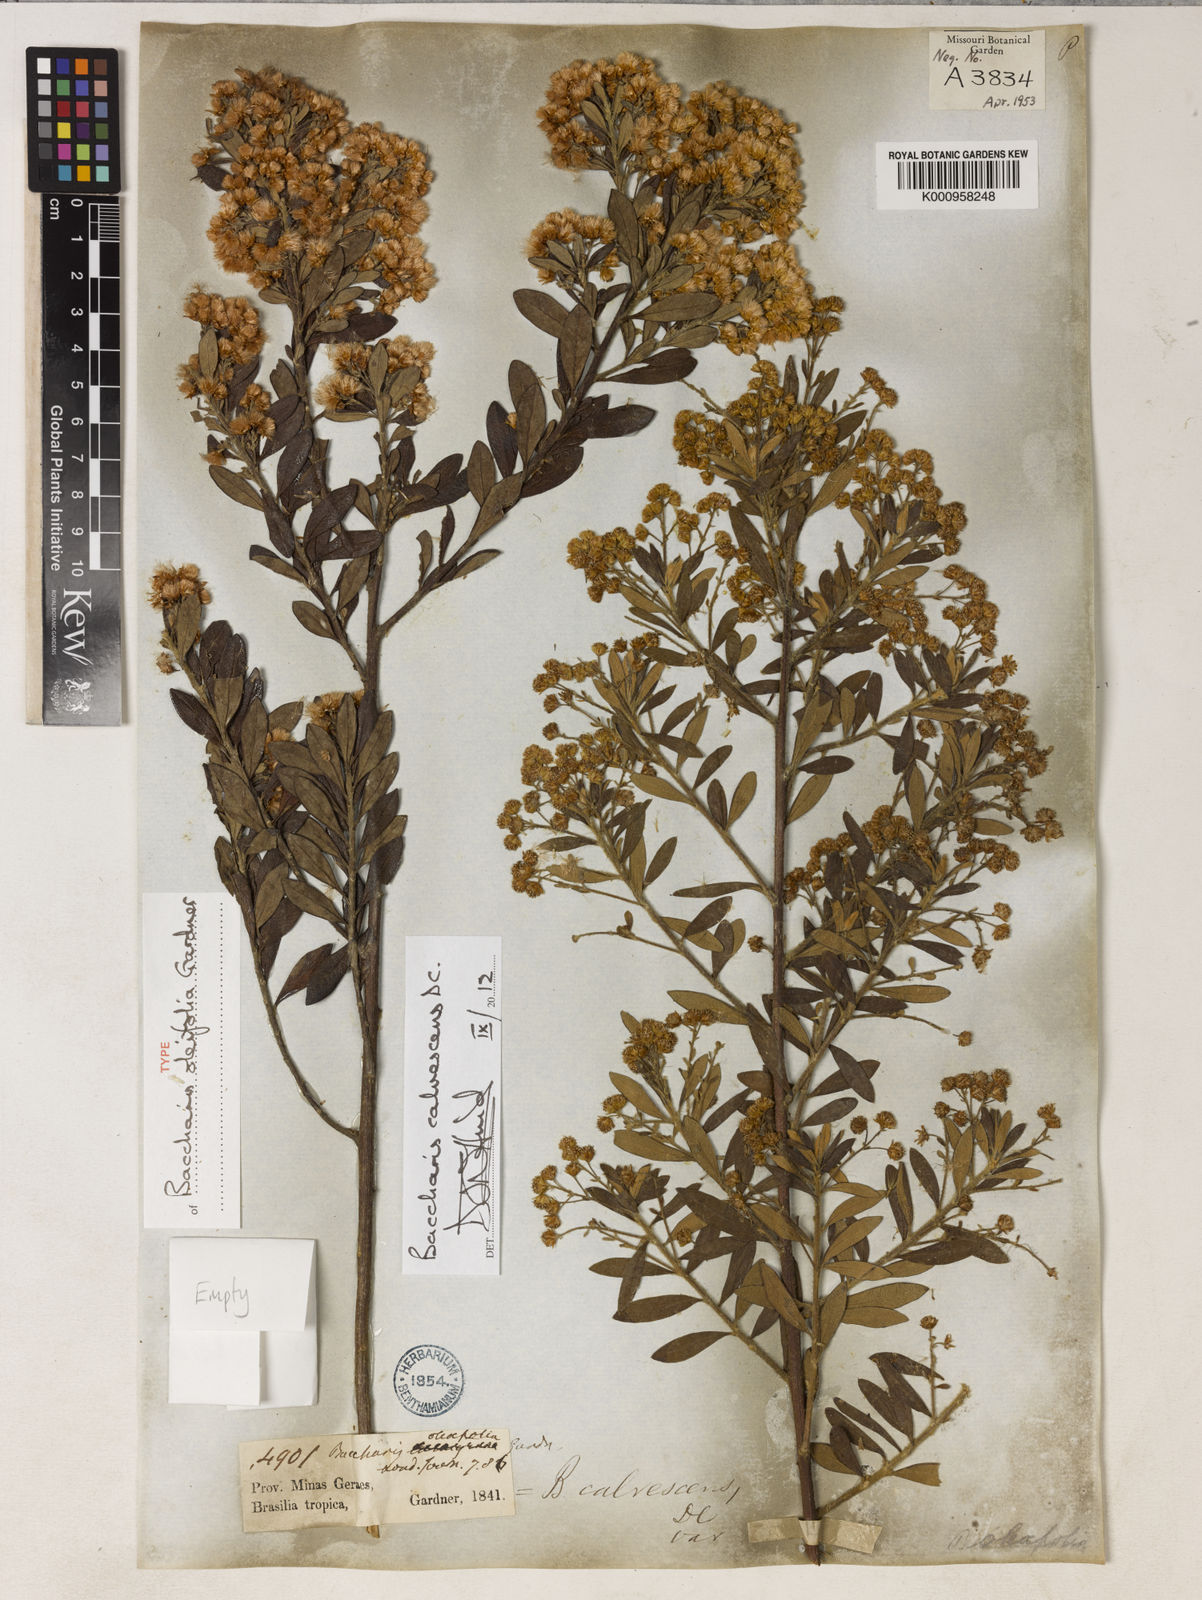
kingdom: Plantae
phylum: Tracheophyta
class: Magnoliopsida
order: Asterales
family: Asteraceae
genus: Baccharis
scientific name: Baccharis calvescens
